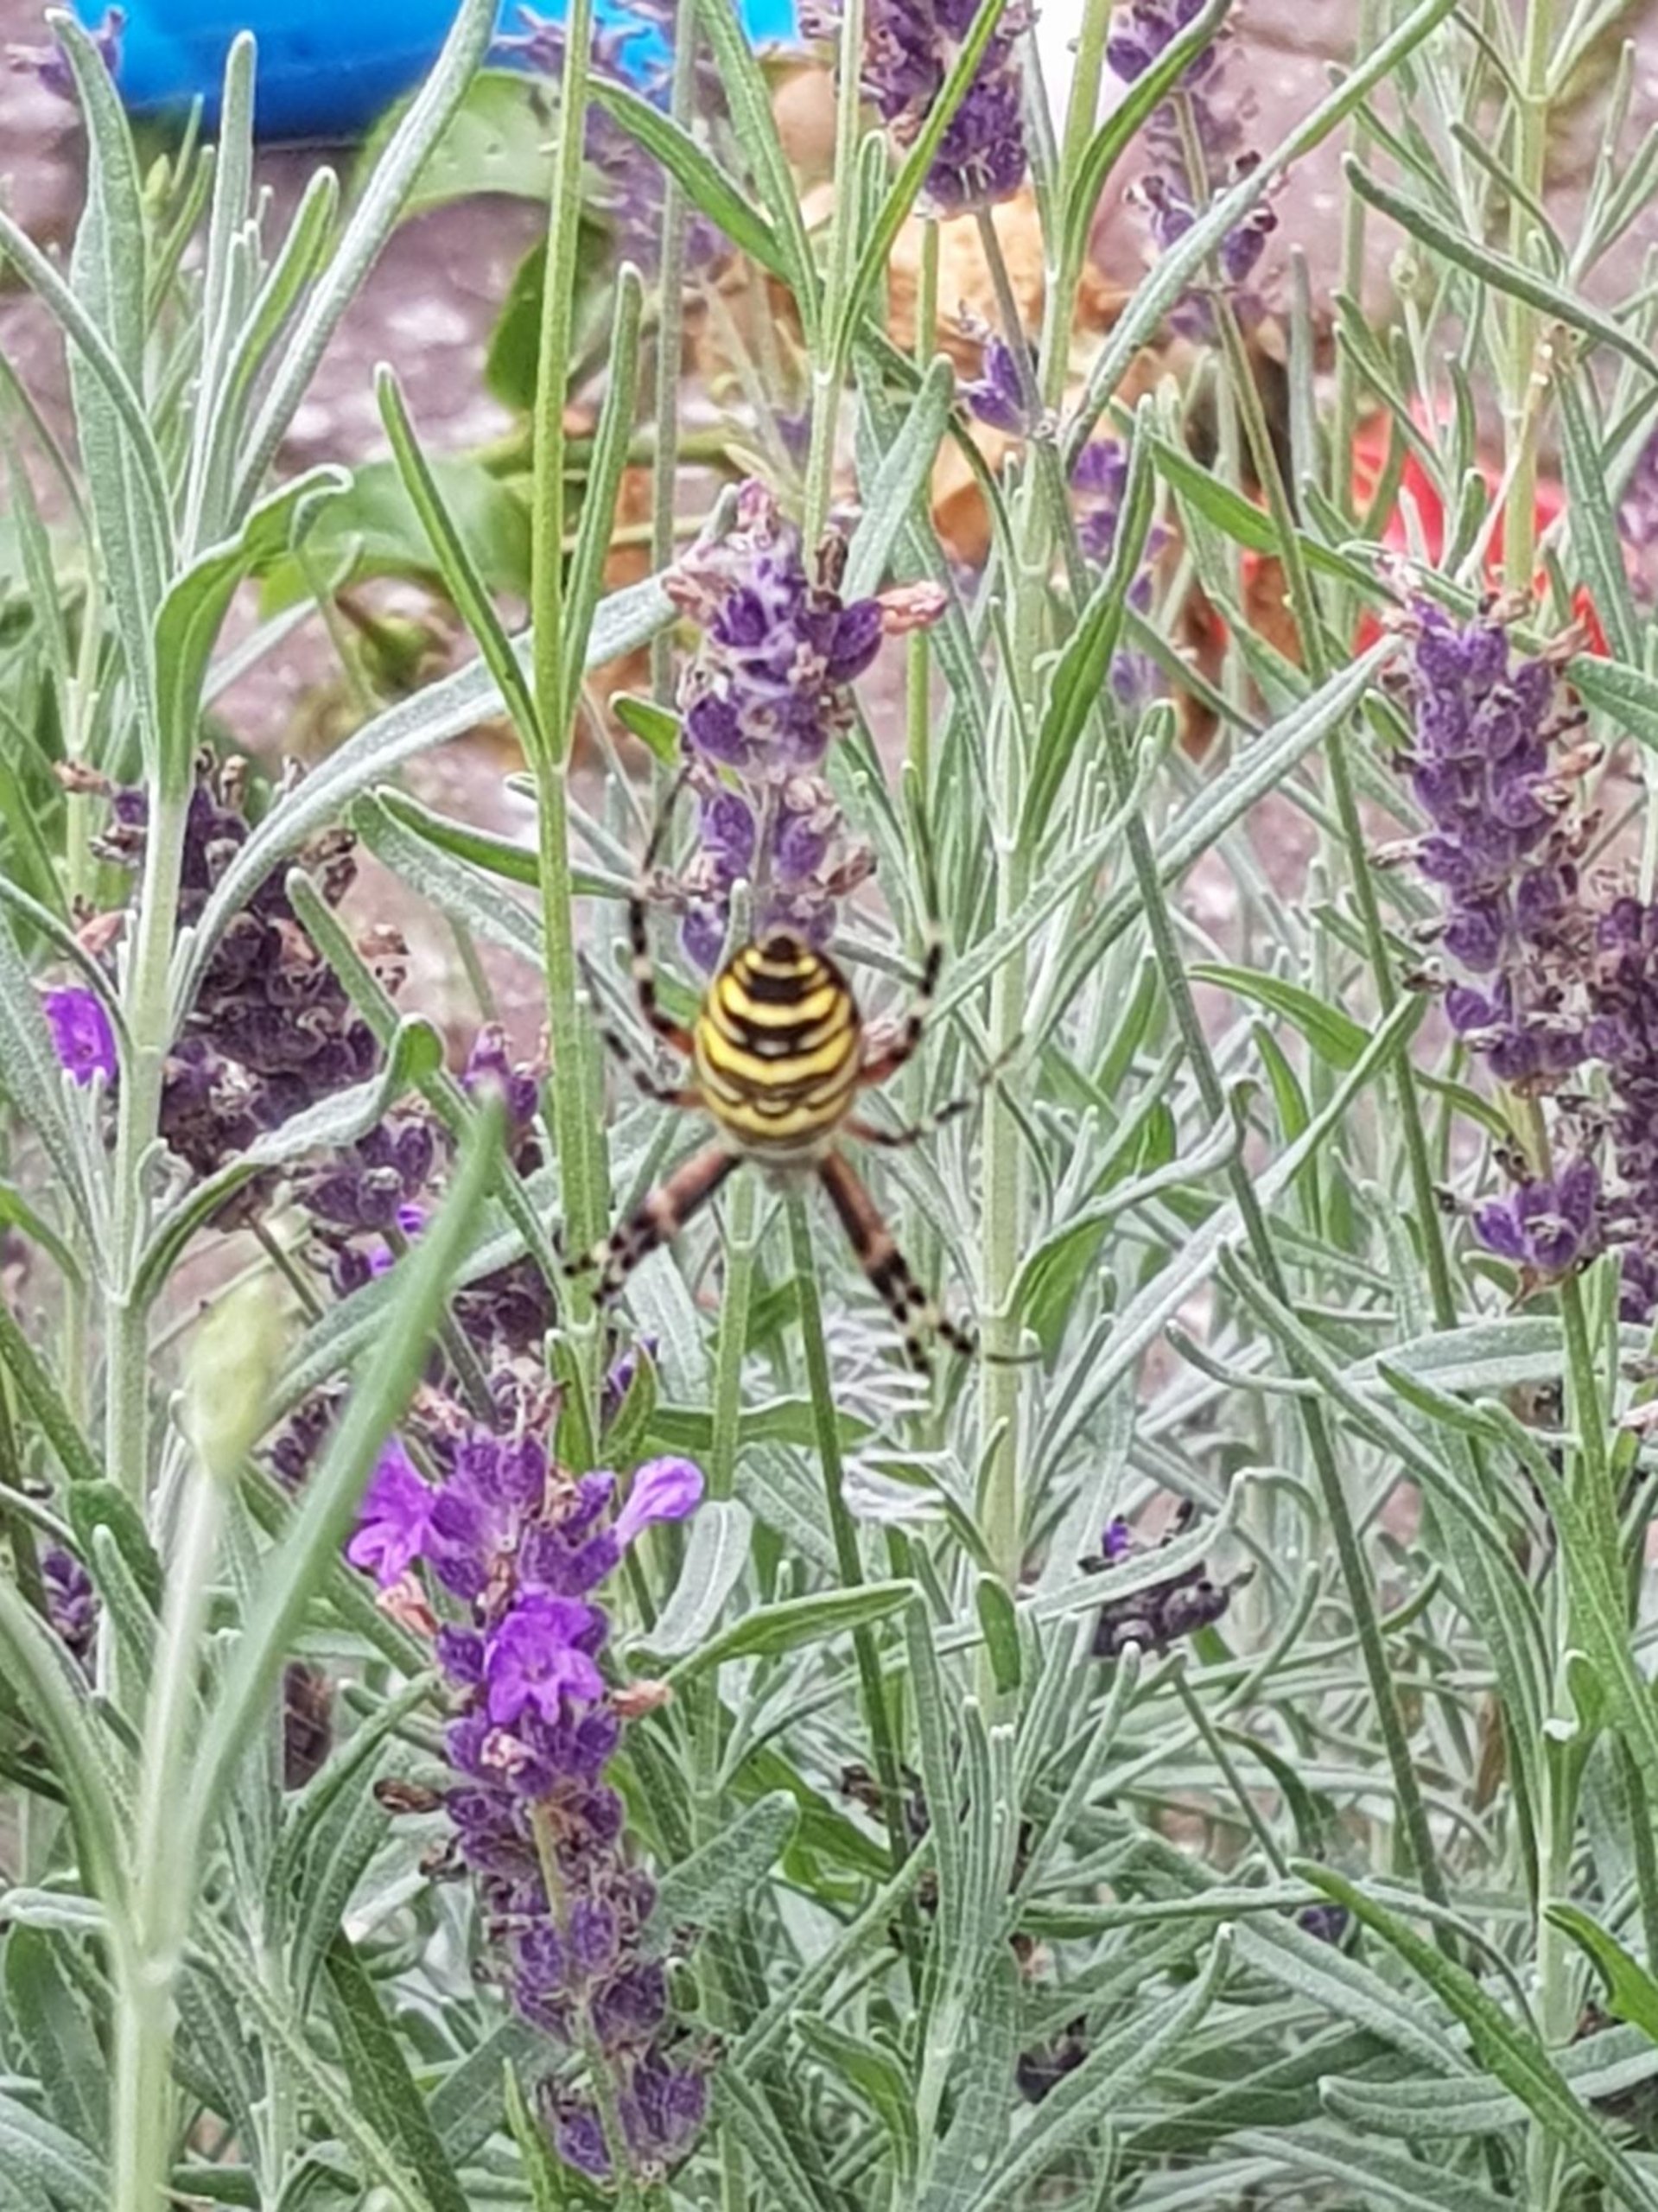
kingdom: Animalia
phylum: Arthropoda
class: Arachnida
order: Araneae
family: Araneidae
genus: Argiope
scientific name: Argiope bruennichi
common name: Hvepseedderkop
